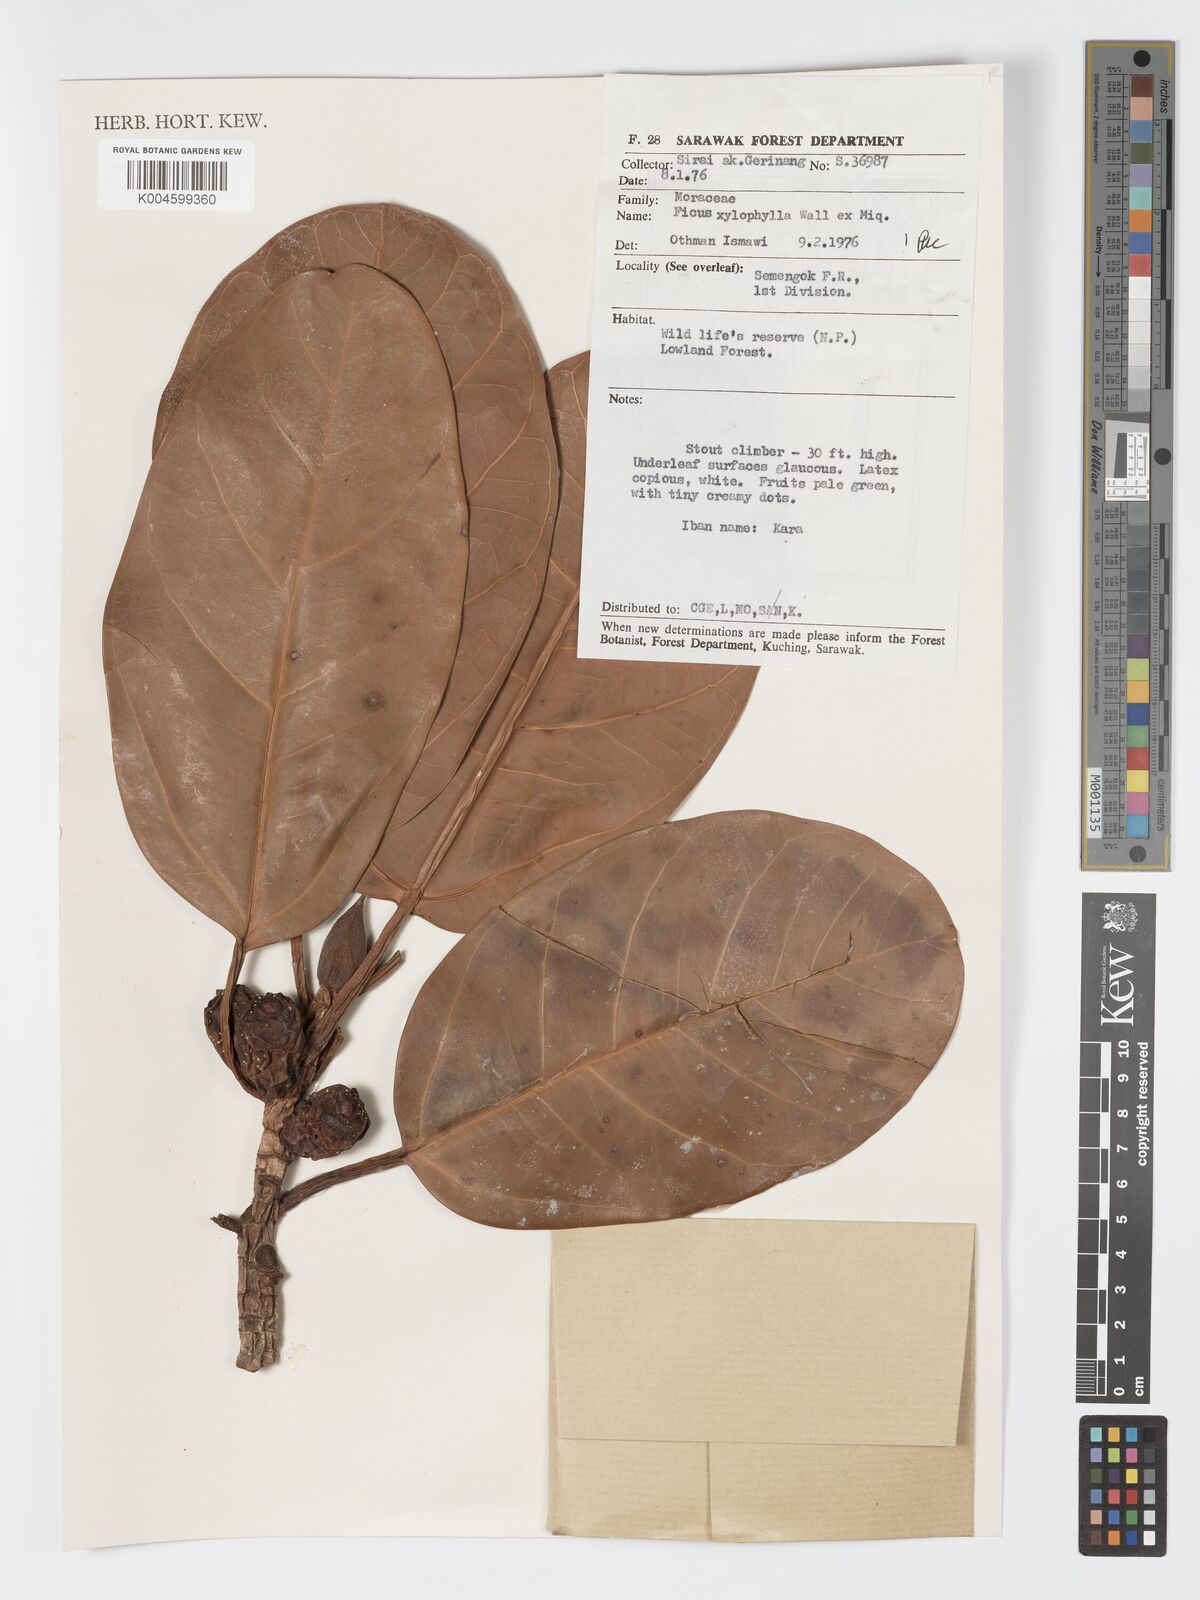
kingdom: Plantae
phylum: Tracheophyta
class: Magnoliopsida
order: Rosales
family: Moraceae
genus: Ficus
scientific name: Ficus xylophylla
